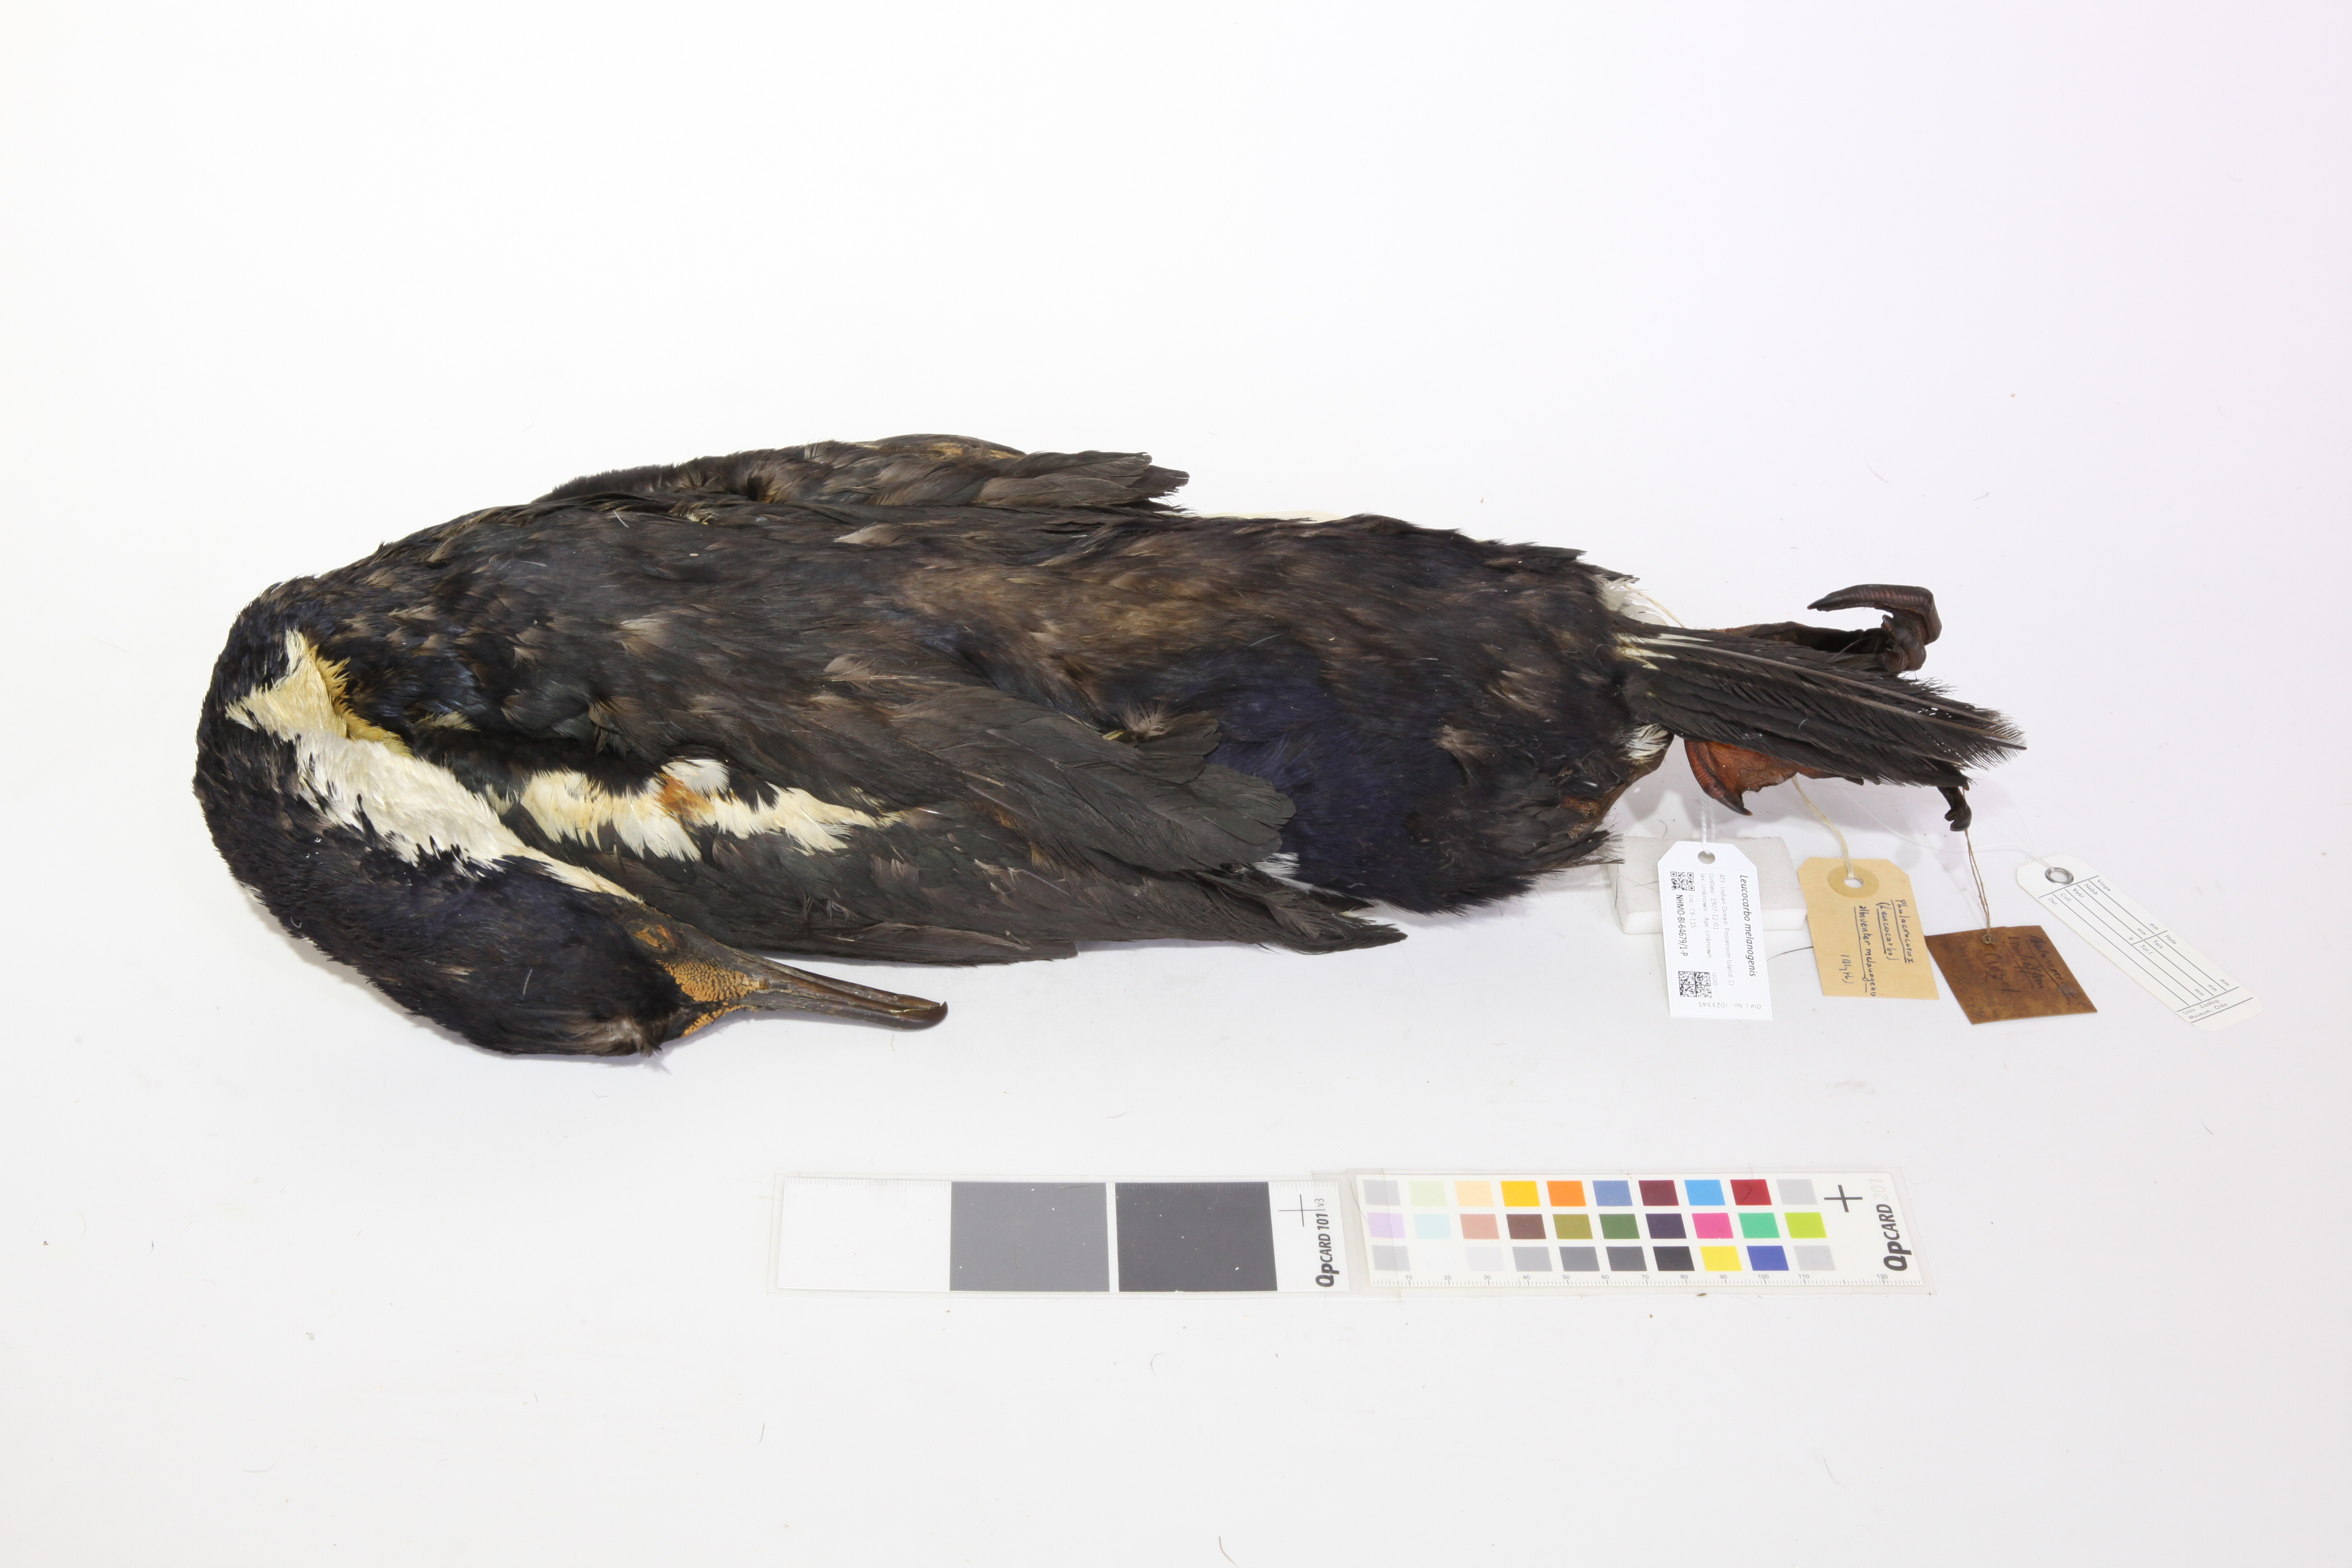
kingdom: Animalia
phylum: Chordata
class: Aves
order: Suliformes
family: Phalacrocoracidae
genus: Leucocarbo
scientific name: Leucocarbo albiventer
